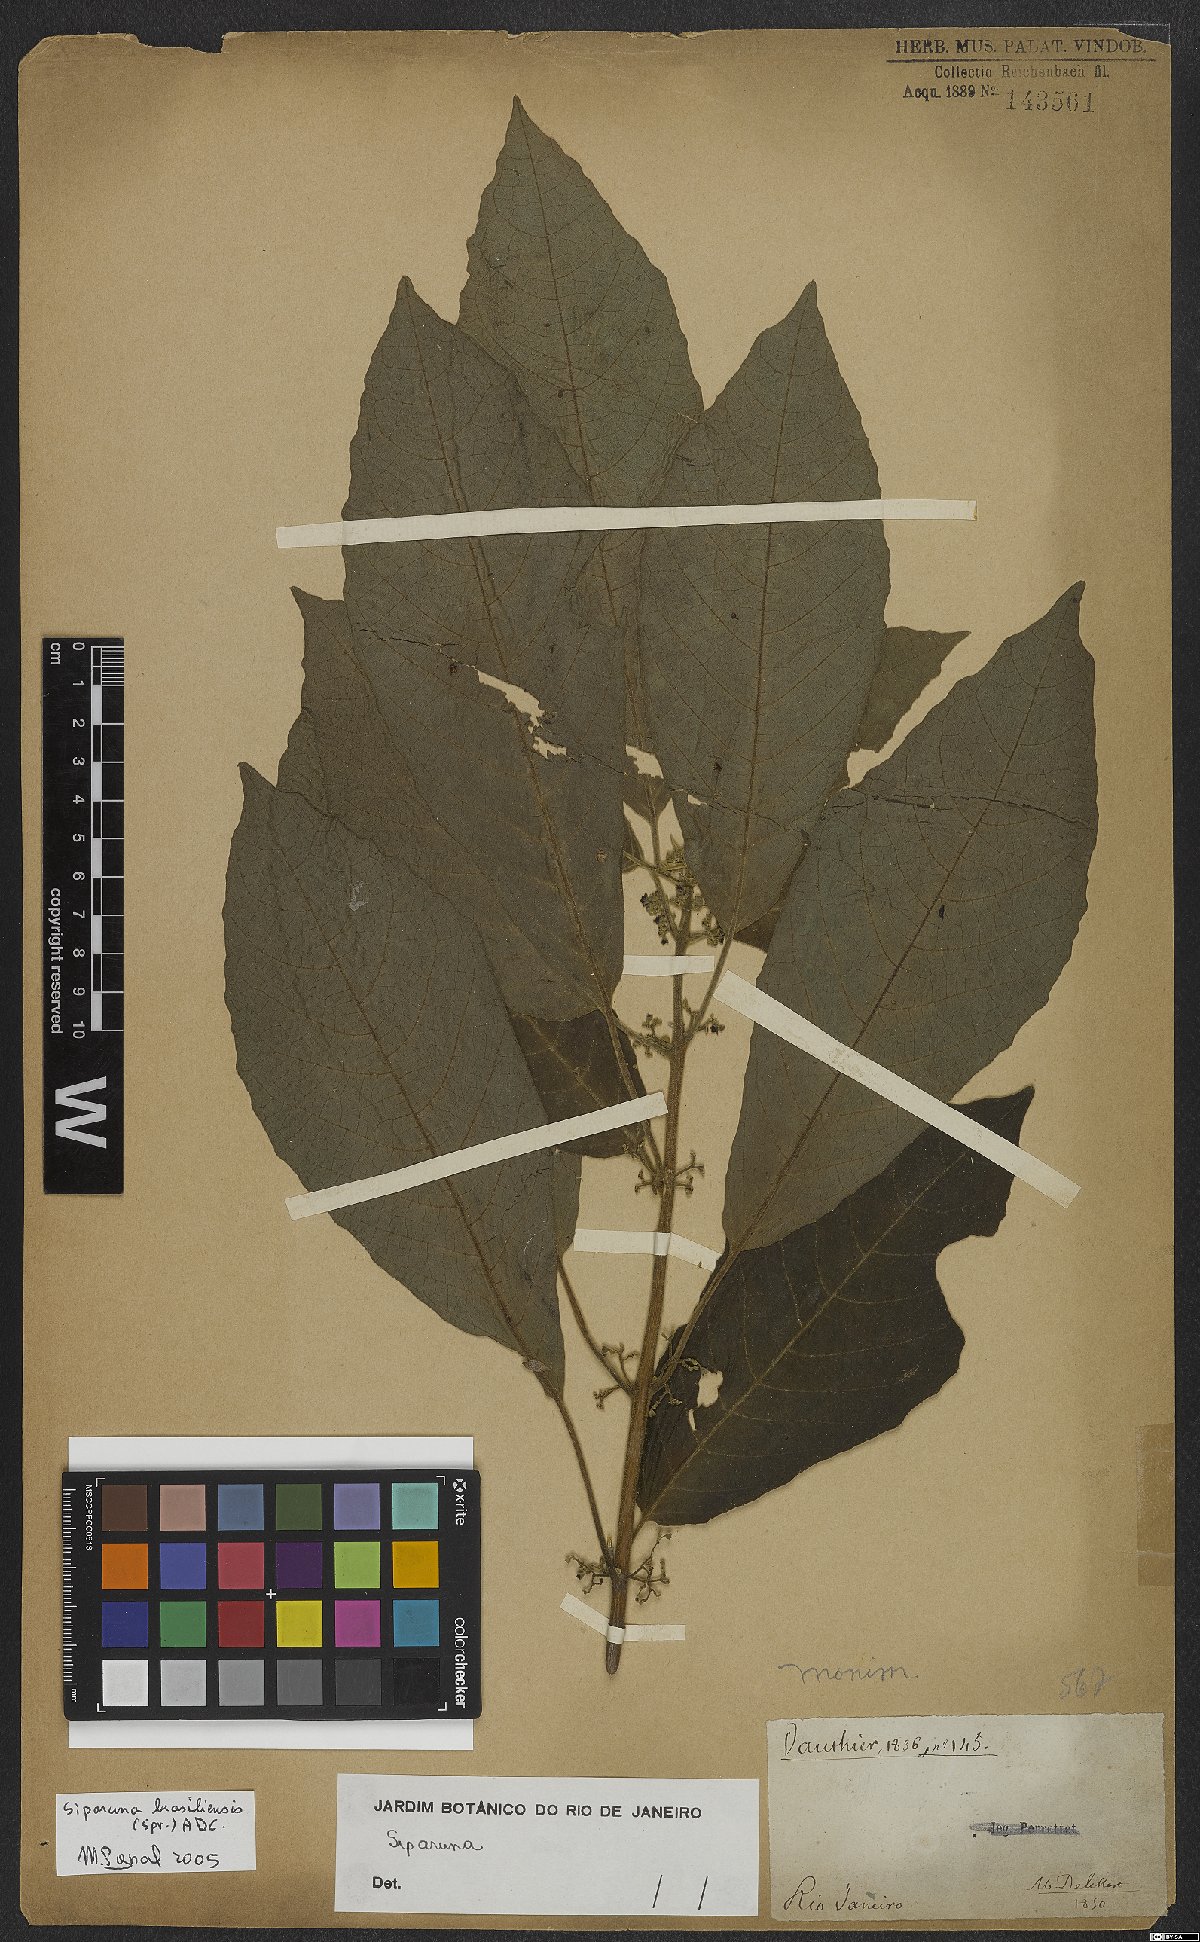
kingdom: Plantae
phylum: Tracheophyta
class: Magnoliopsida
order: Laurales
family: Siparunaceae
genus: Siparuna
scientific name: Siparuna brasiliensis
